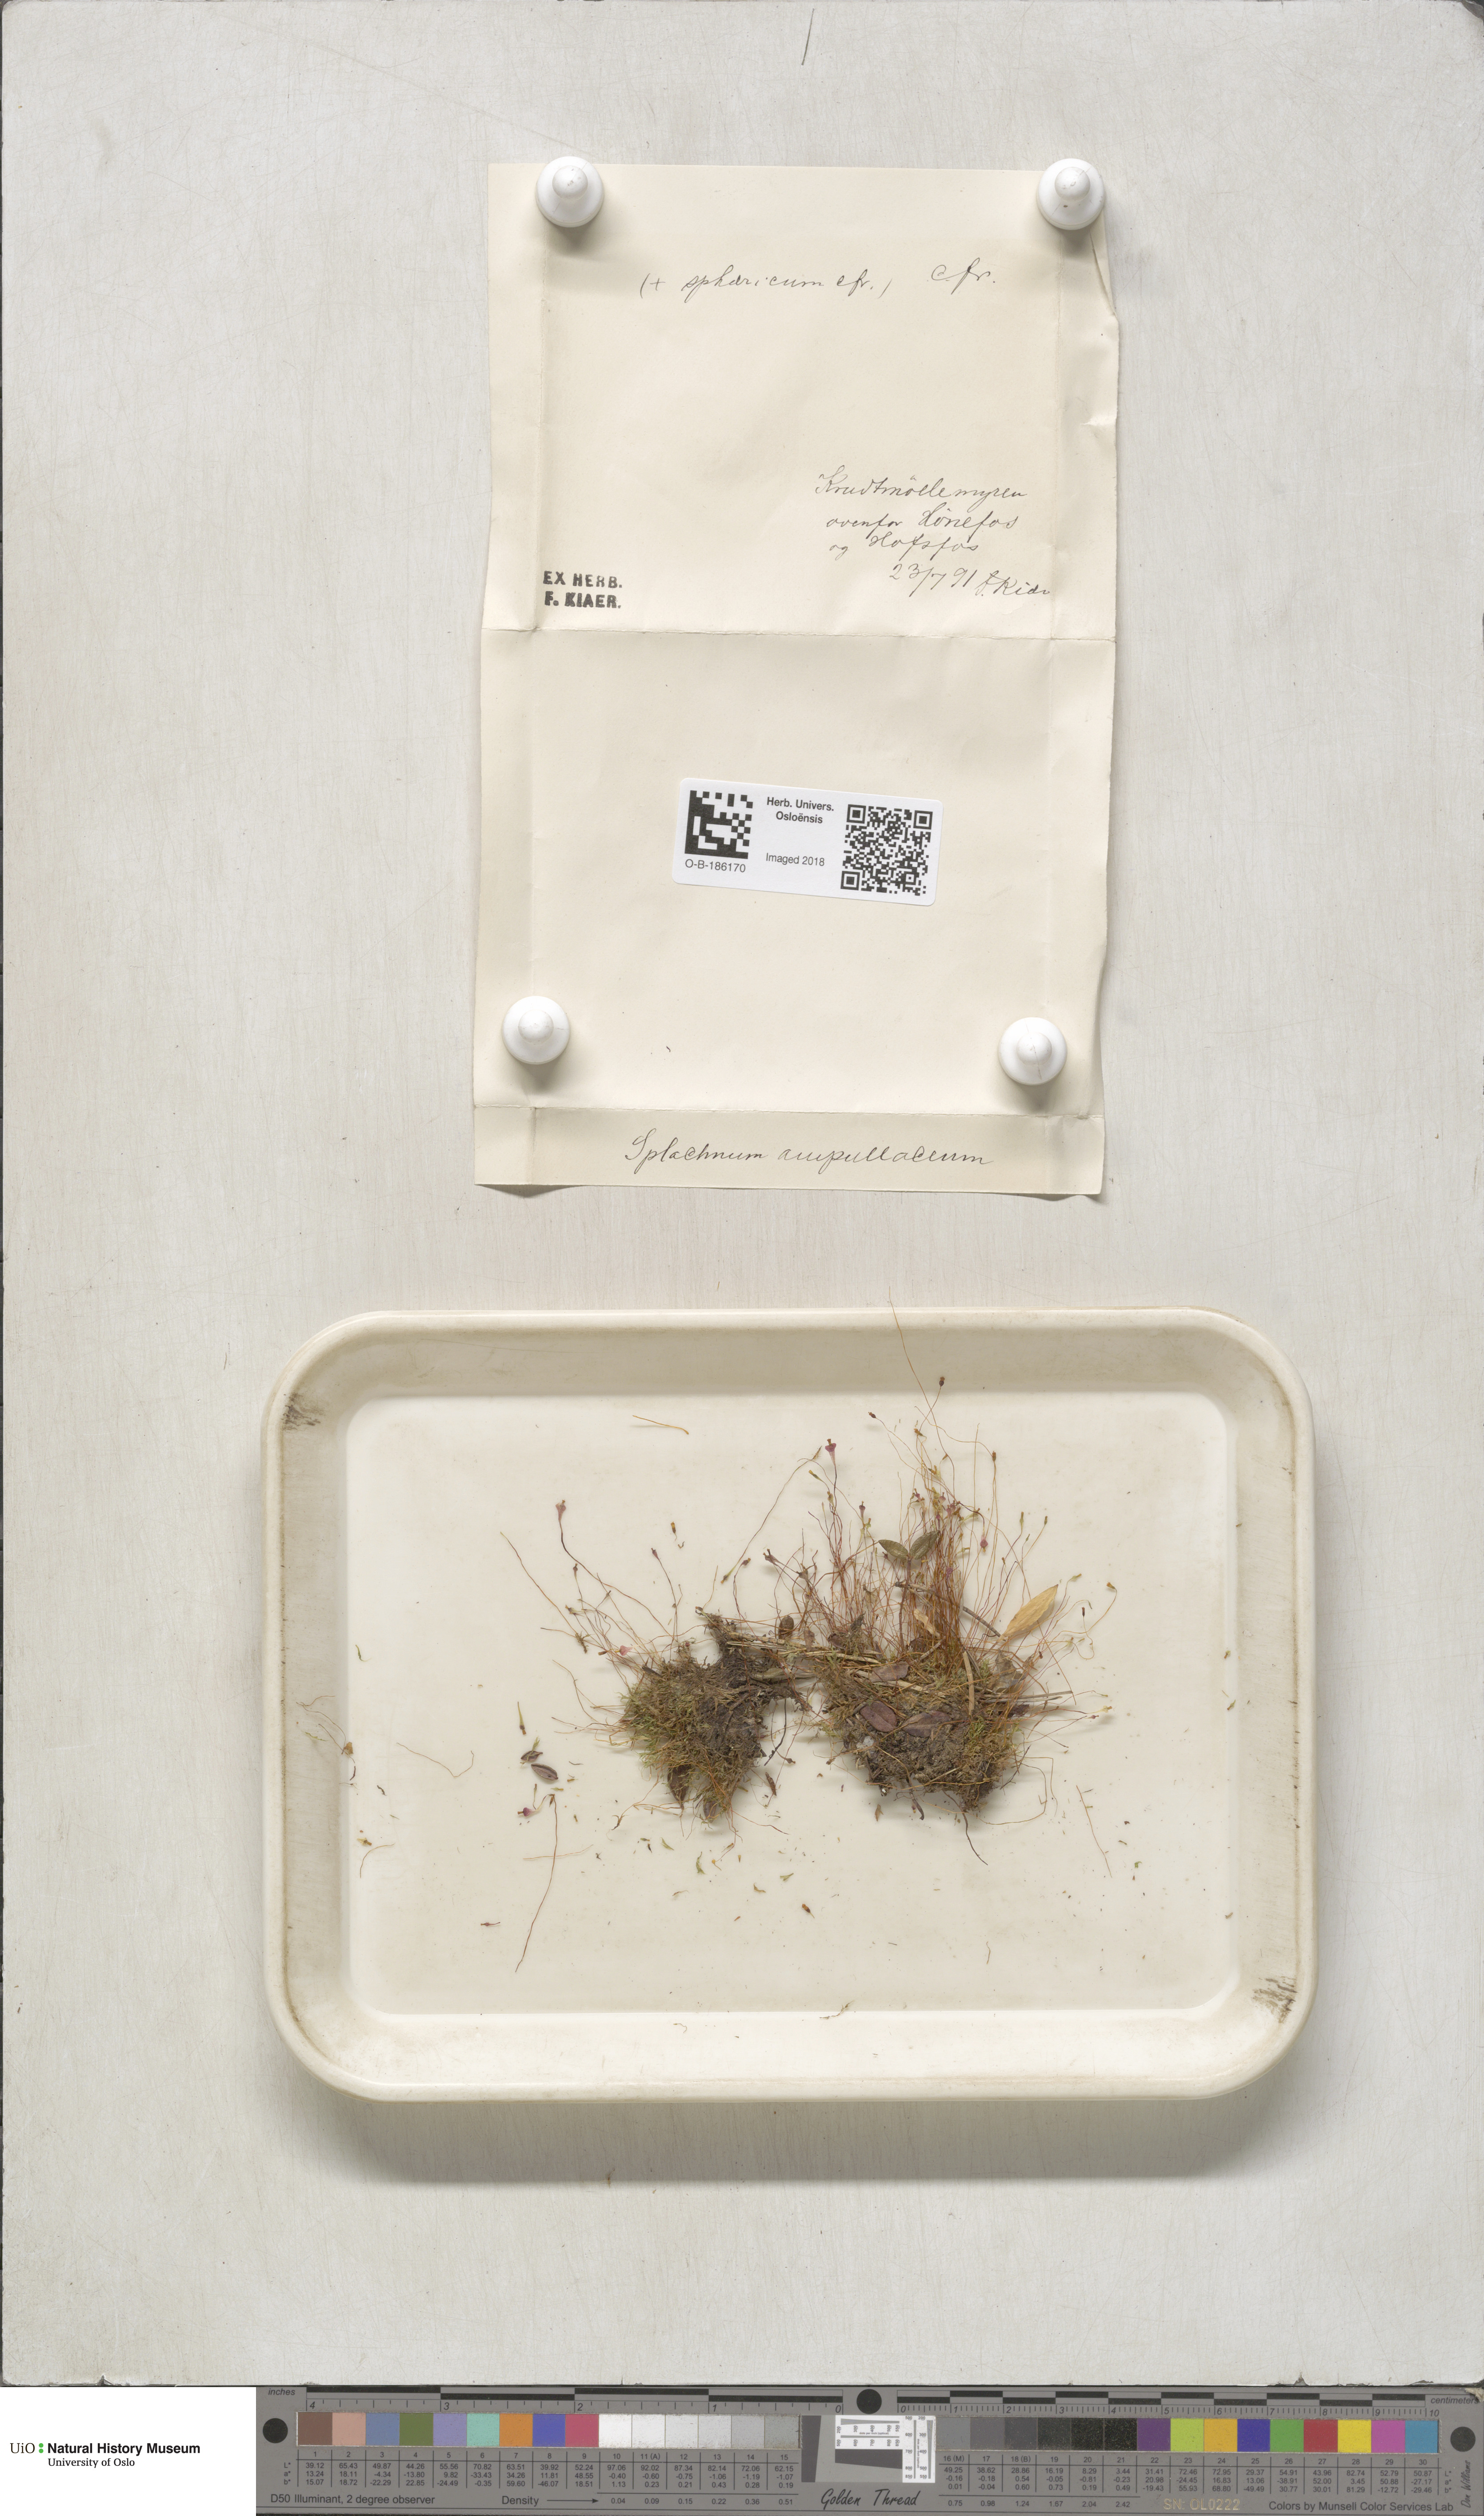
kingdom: Plantae
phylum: Bryophyta
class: Bryopsida
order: Splachnales
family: Splachnaceae
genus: Splachnum
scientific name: Splachnum sphaericum
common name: Round-fruited dung moss
